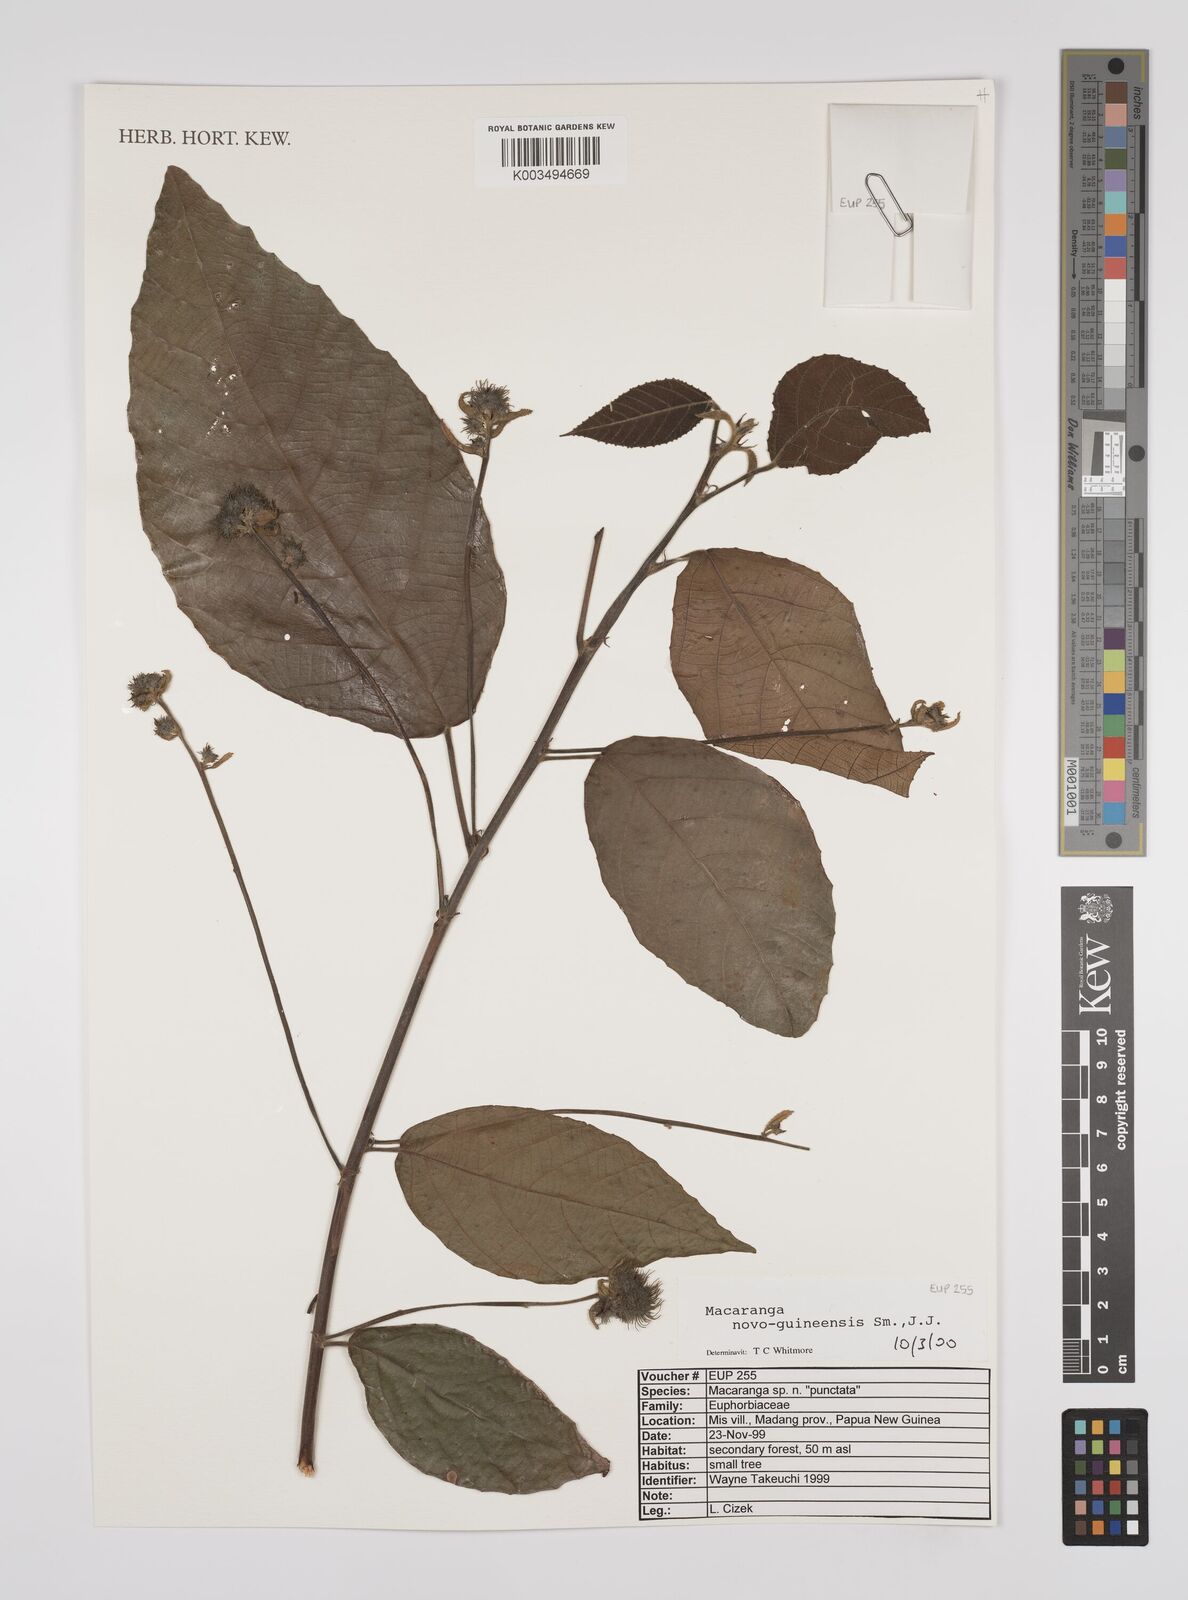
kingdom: Plantae
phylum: Tracheophyta
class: Magnoliopsida
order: Malpighiales
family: Euphorbiaceae
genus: Macaranga
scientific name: Macaranga novoguineensis
